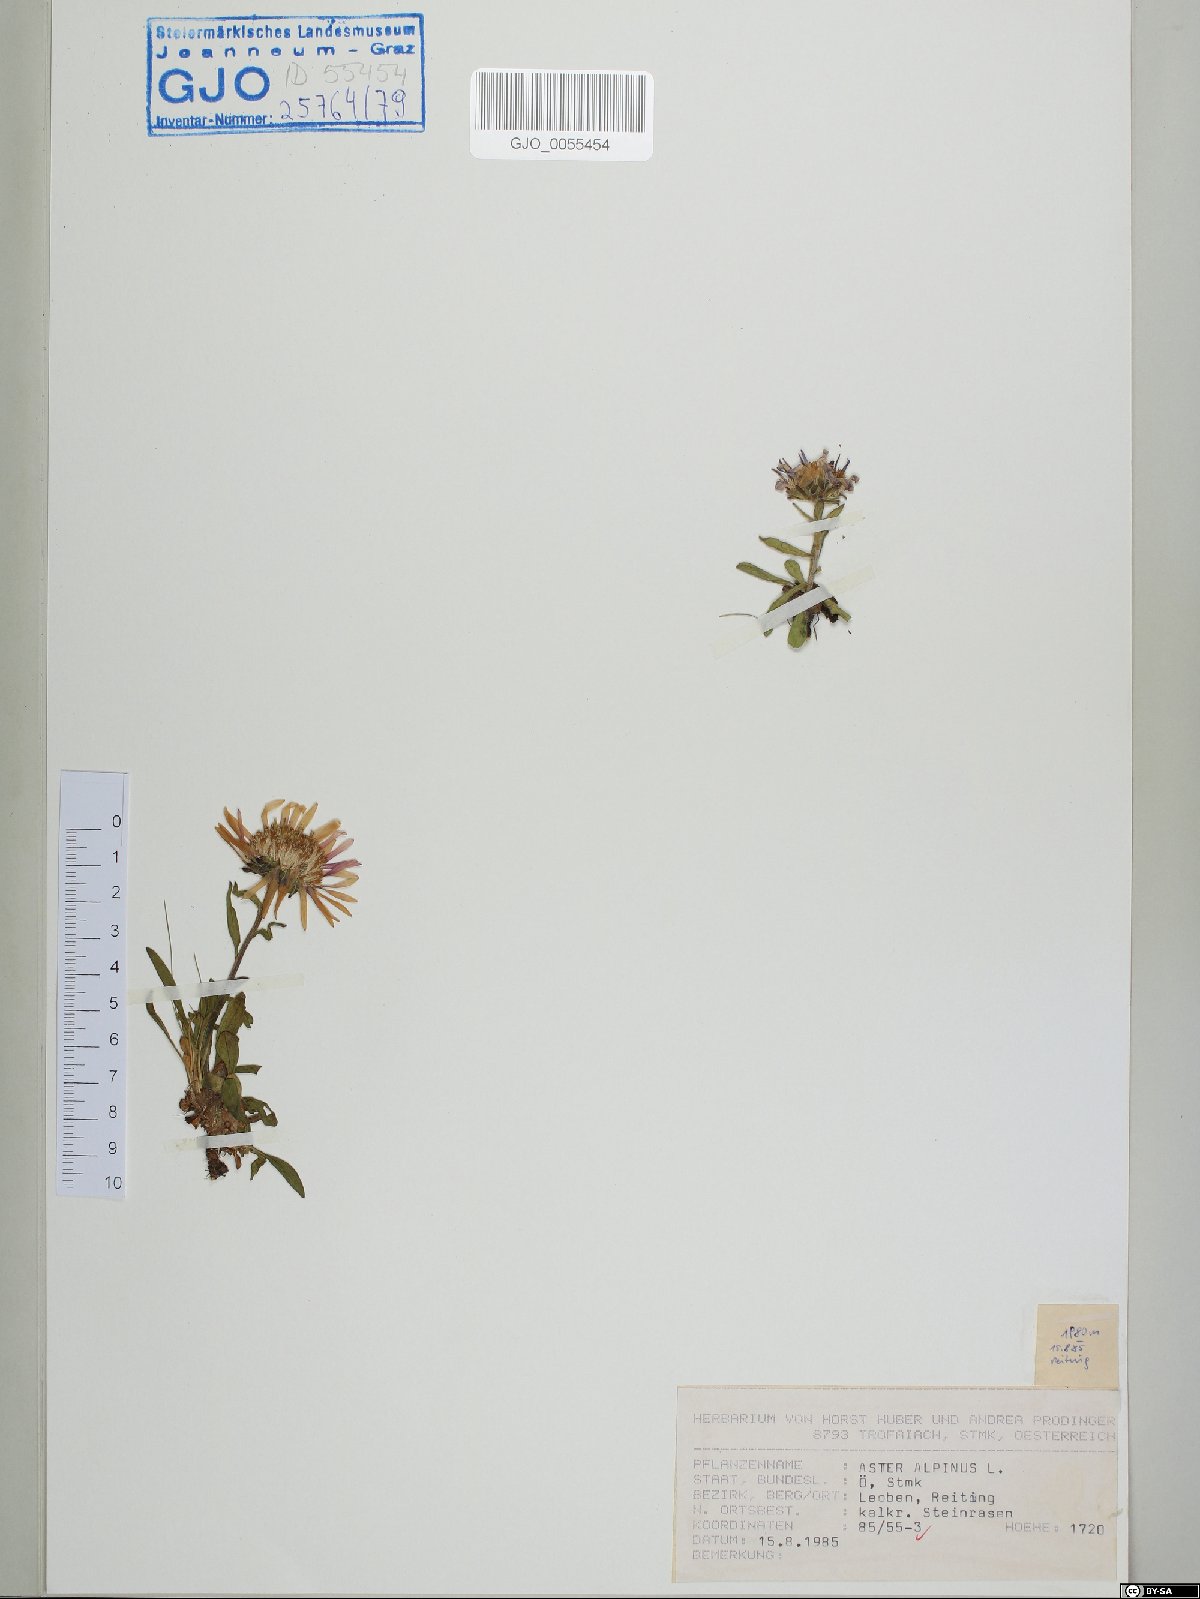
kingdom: Plantae
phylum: Tracheophyta
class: Magnoliopsida
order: Asterales
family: Asteraceae
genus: Aster
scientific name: Aster alpinus
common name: Alpine aster
